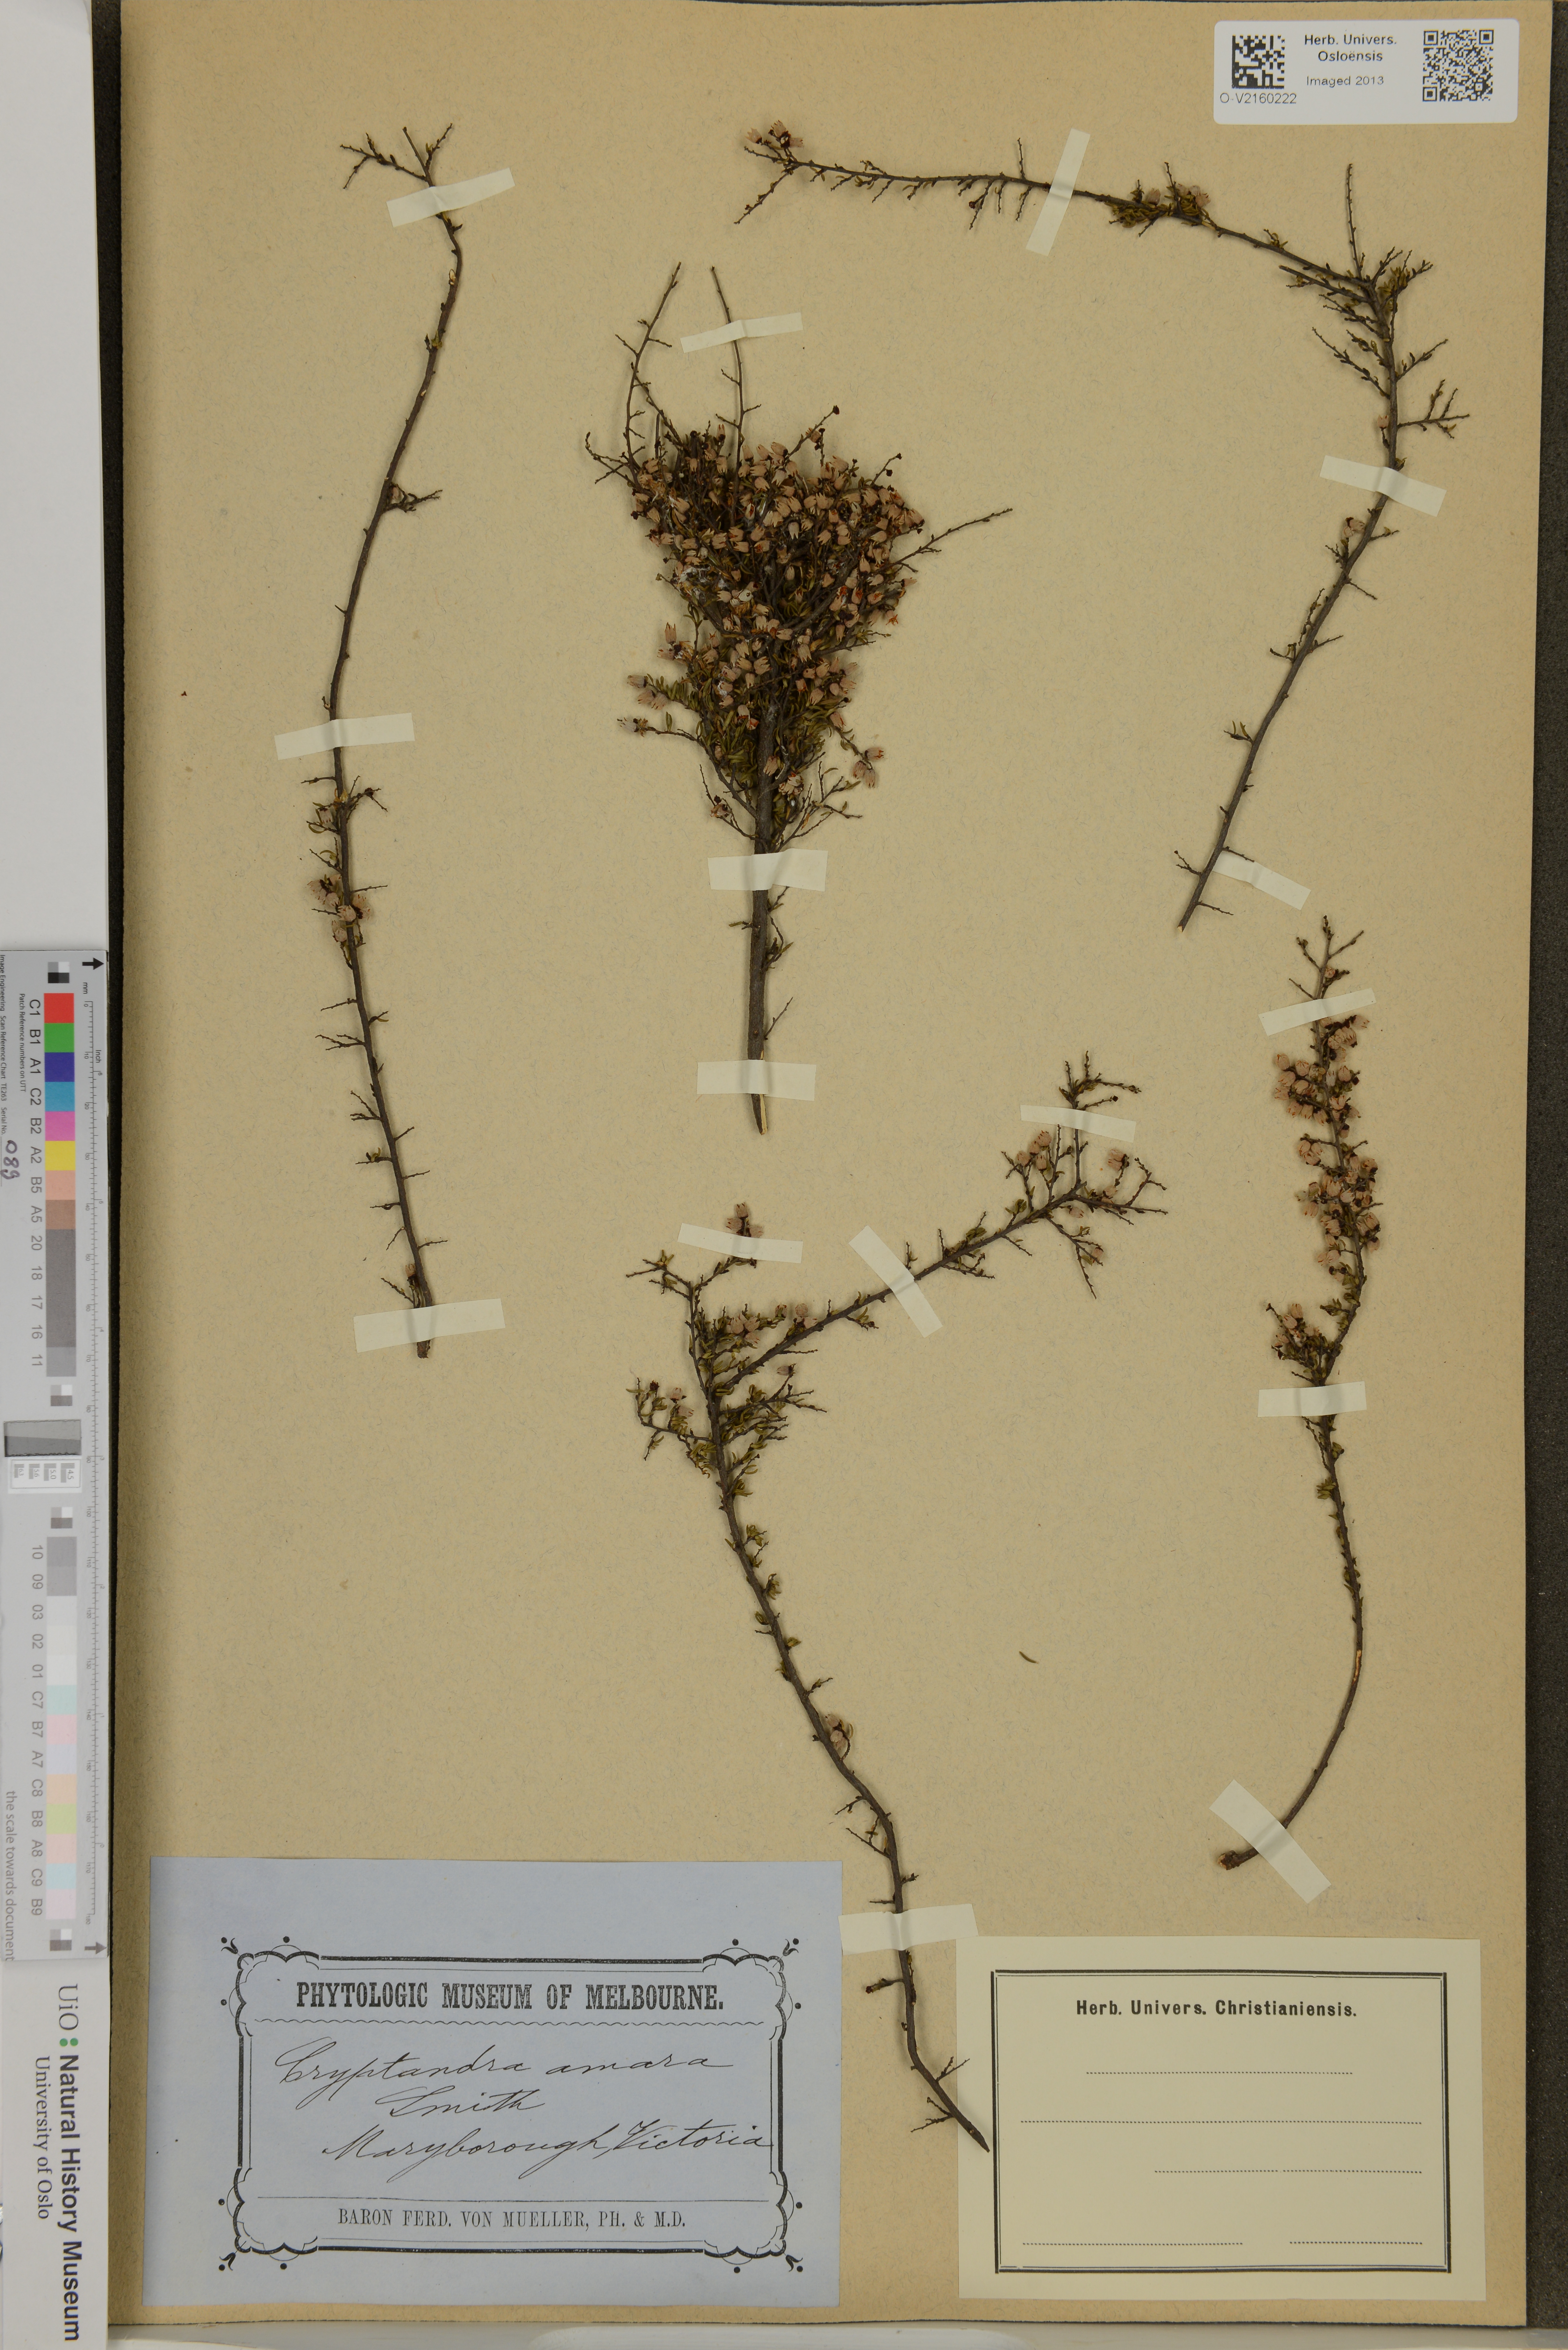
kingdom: Plantae
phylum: Tracheophyta
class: Magnoliopsida
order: Rosales
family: Rhamnaceae
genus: Cryptandra
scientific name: Cryptandra amara
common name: Bitter cryptandra
